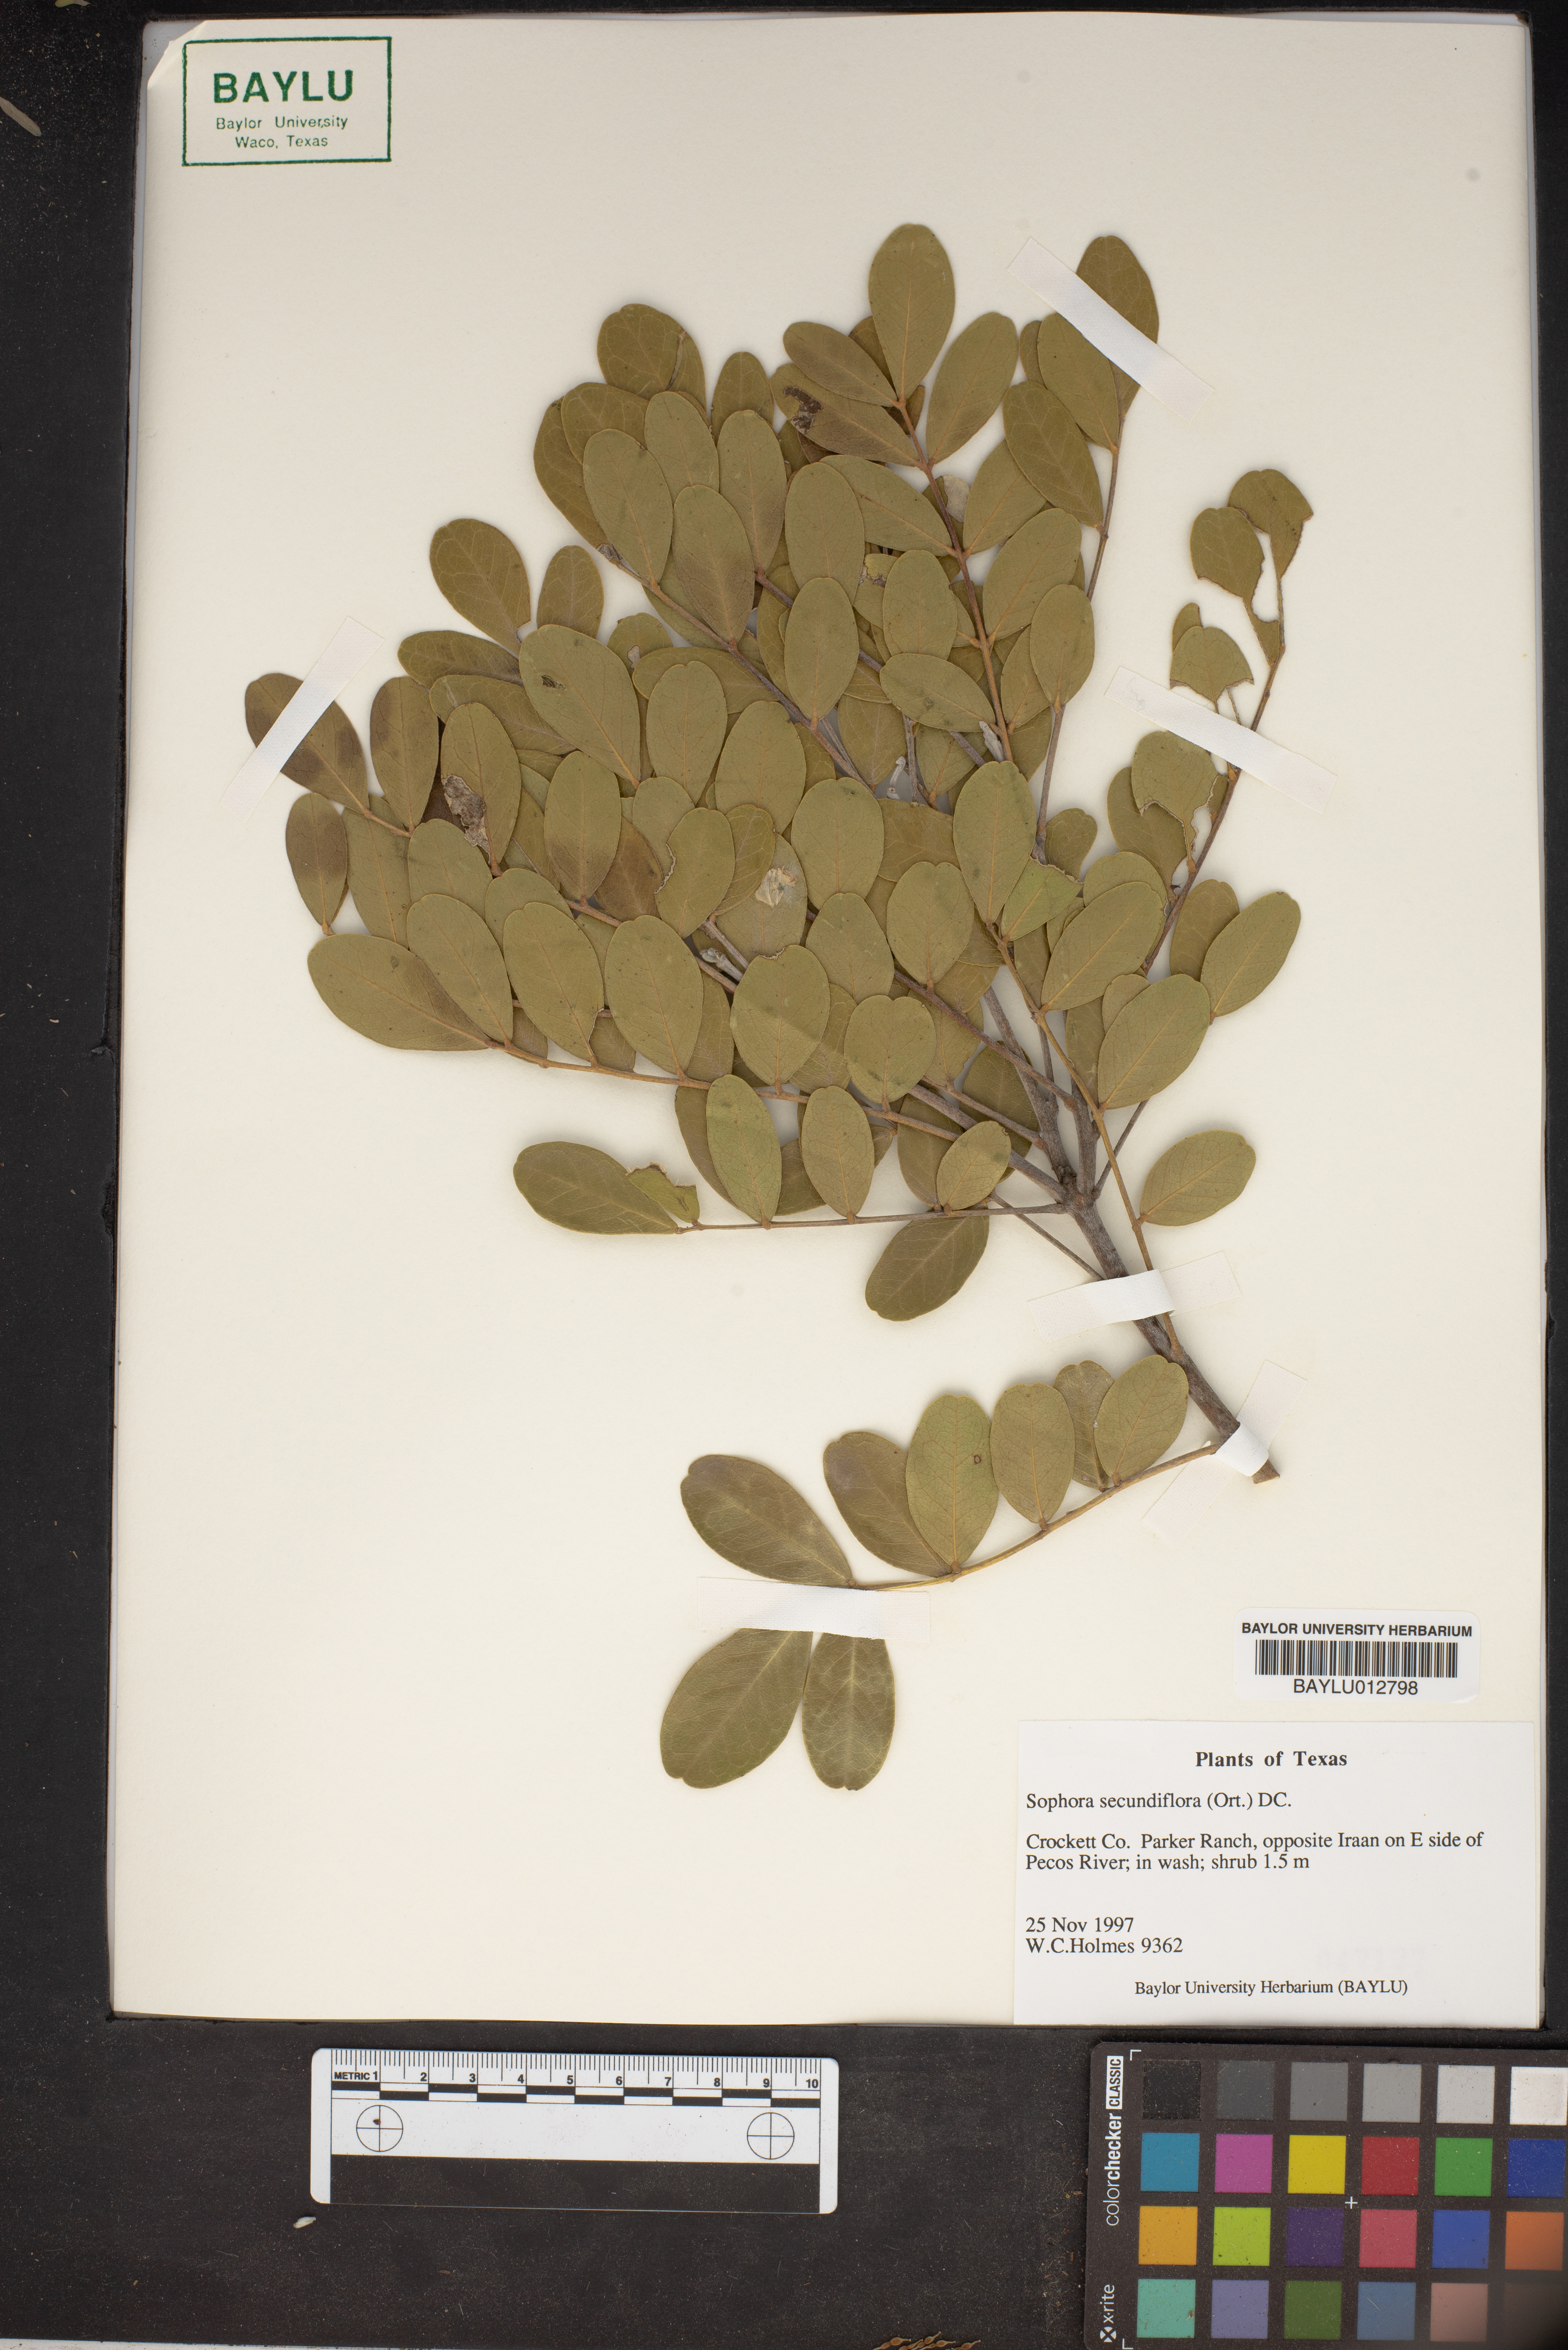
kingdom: Plantae
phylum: Tracheophyta
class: Magnoliopsida
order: Fabales
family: Fabaceae
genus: Dermatophyllum
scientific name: Dermatophyllum secundiflorum
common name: Texas-mountain-laurel
